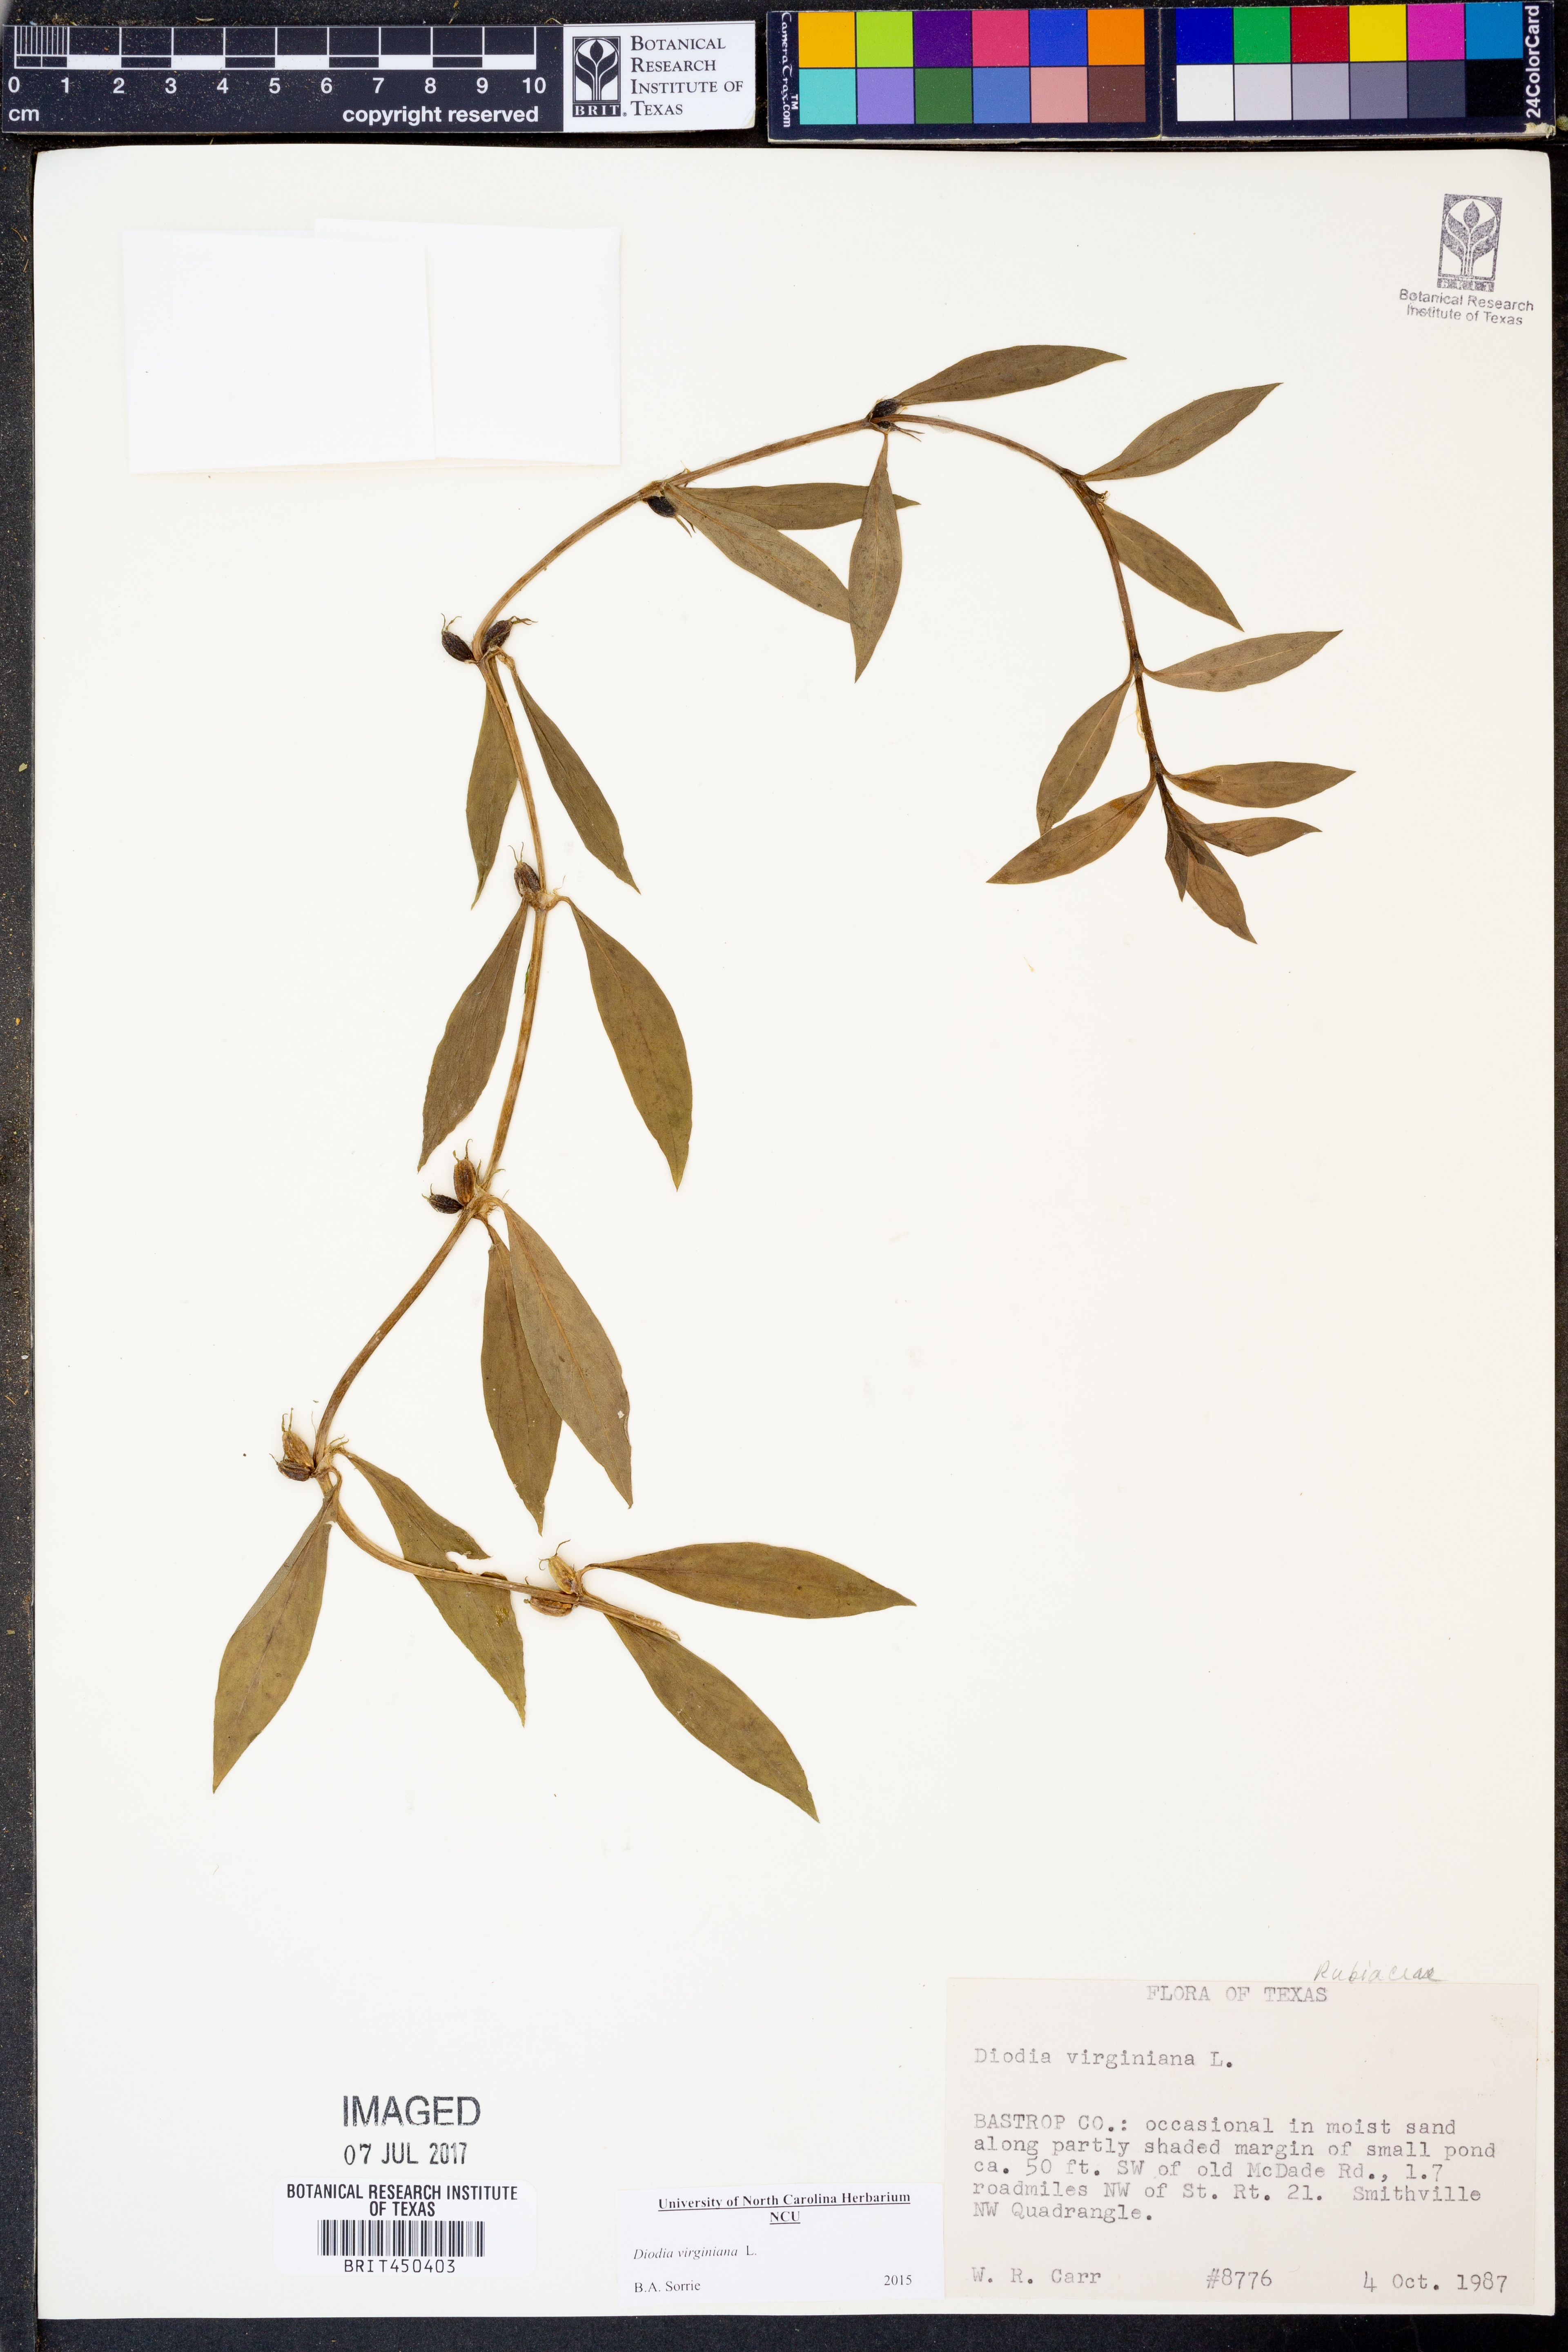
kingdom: Plantae
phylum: Tracheophyta
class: Magnoliopsida
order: Gentianales
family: Rubiaceae
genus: Diodia
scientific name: Diodia virginiana
